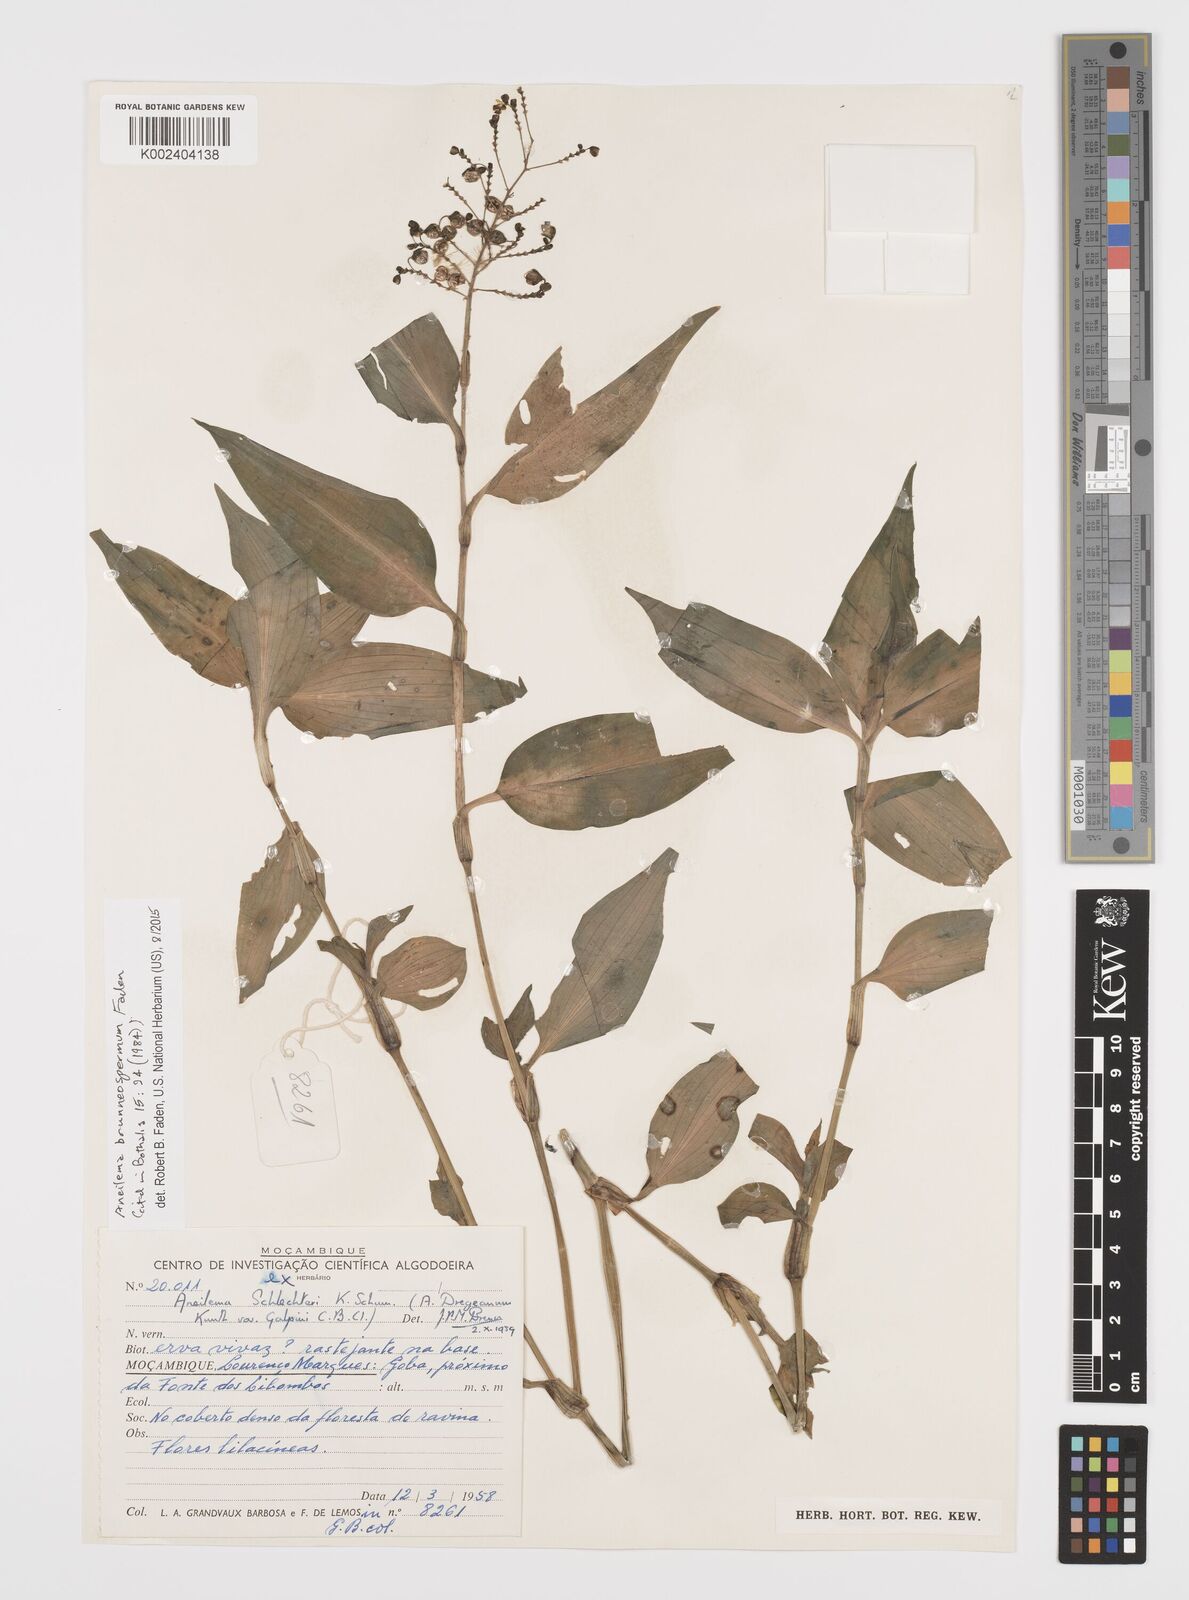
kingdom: Plantae
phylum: Tracheophyta
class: Liliopsida
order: Commelinales
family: Commelinaceae
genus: Aneilema
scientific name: Aneilema brunneospermum
